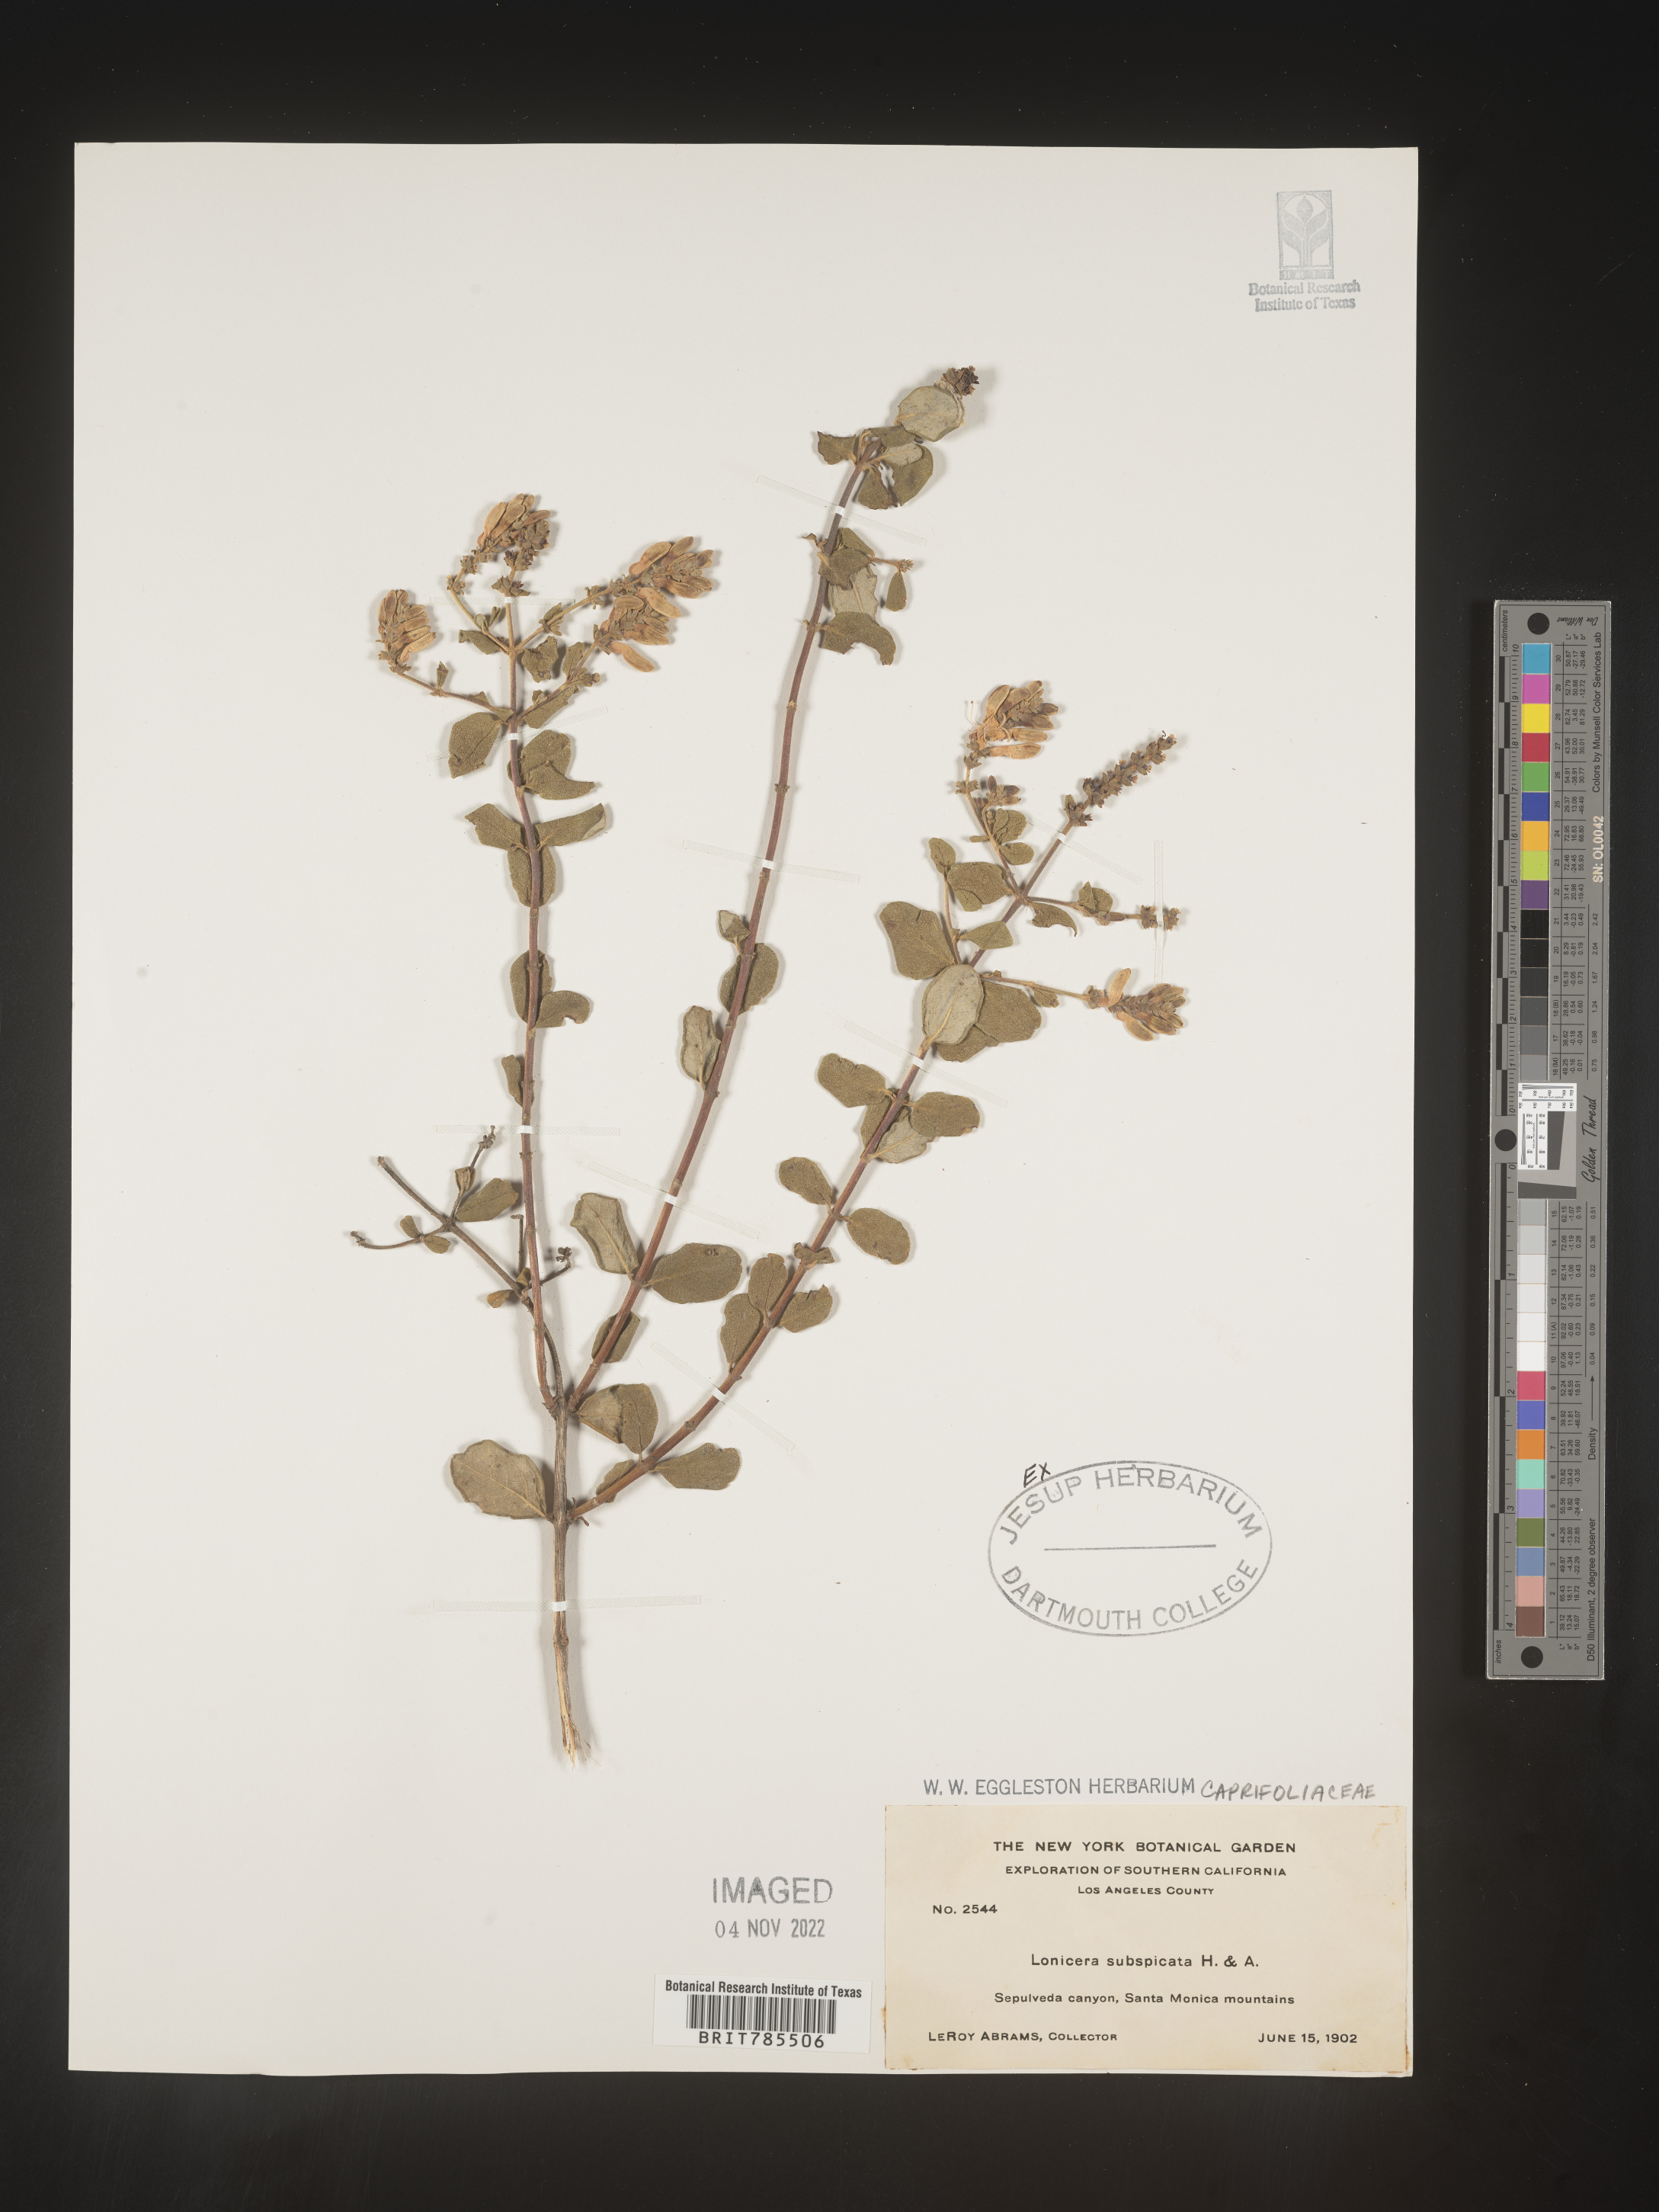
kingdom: Plantae
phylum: Tracheophyta
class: Magnoliopsida
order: Dipsacales
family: Caprifoliaceae
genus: Lonicera
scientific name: Lonicera
